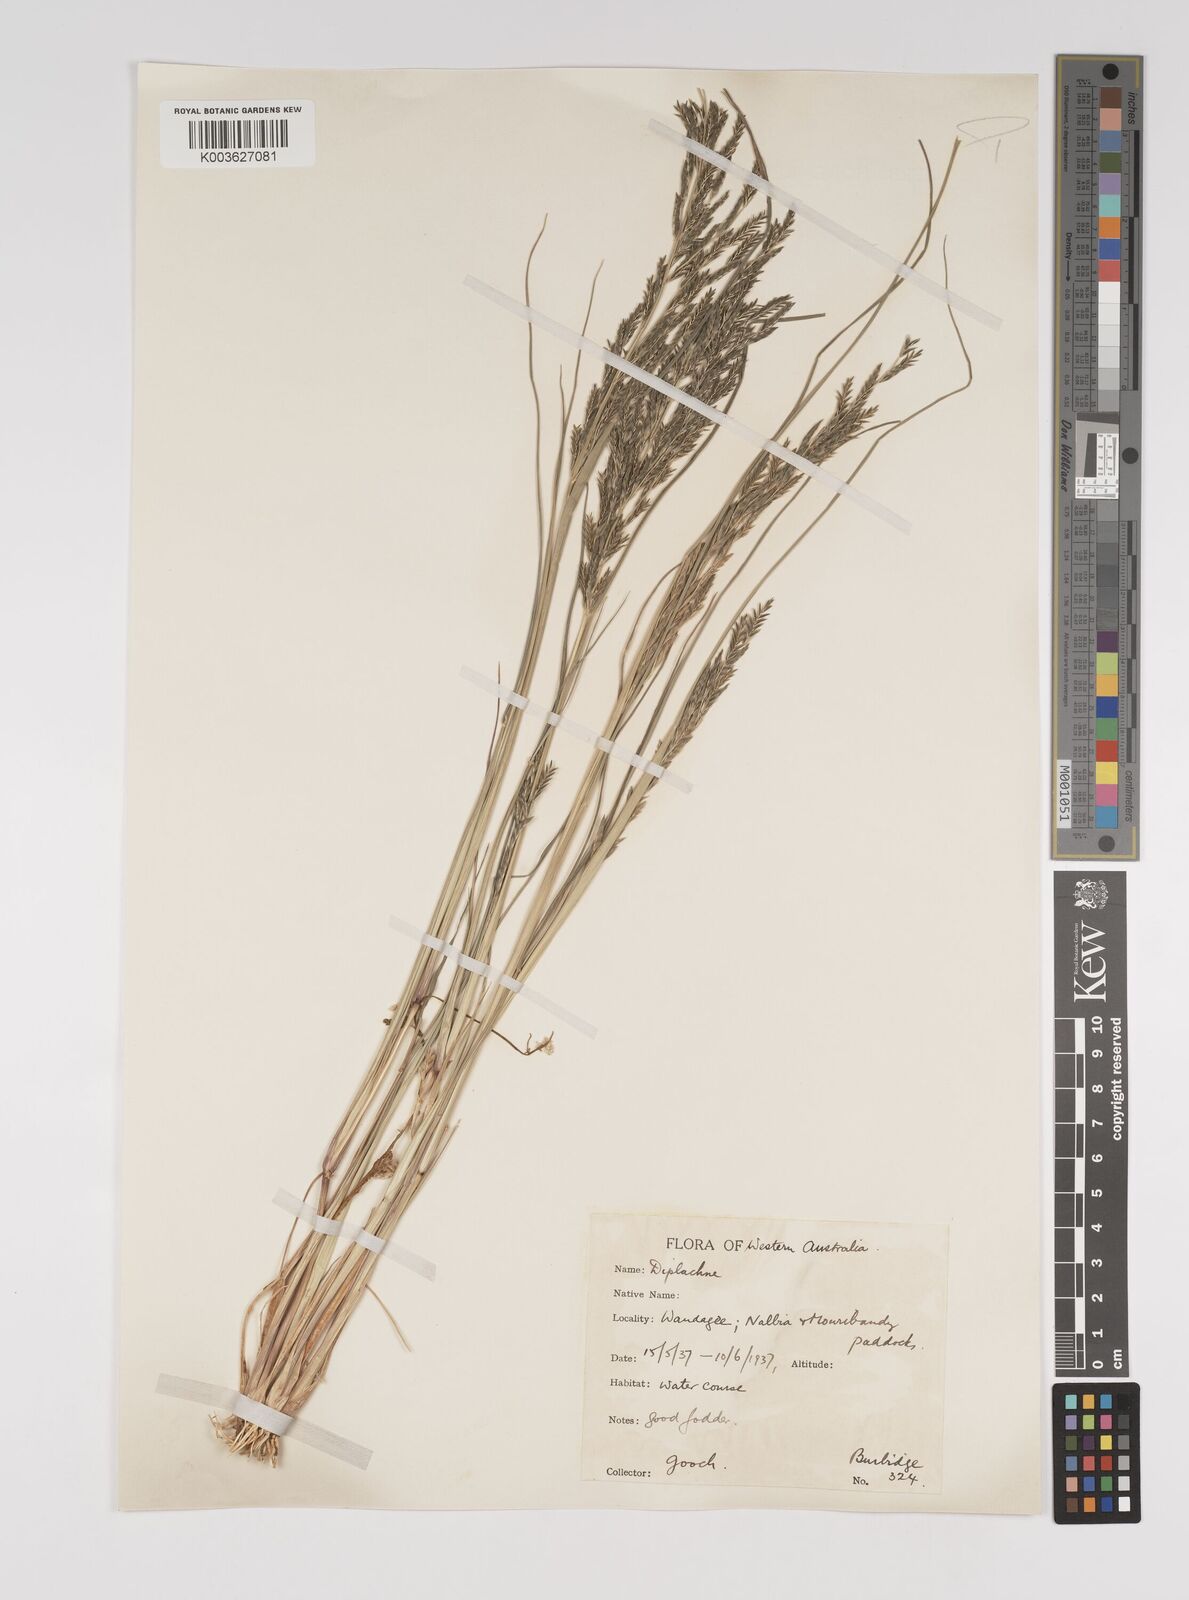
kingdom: Plantae
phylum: Tracheophyta
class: Liliopsida
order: Poales
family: Poaceae
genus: Diplachne
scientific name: Diplachne fusca
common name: Brown beetle grass
